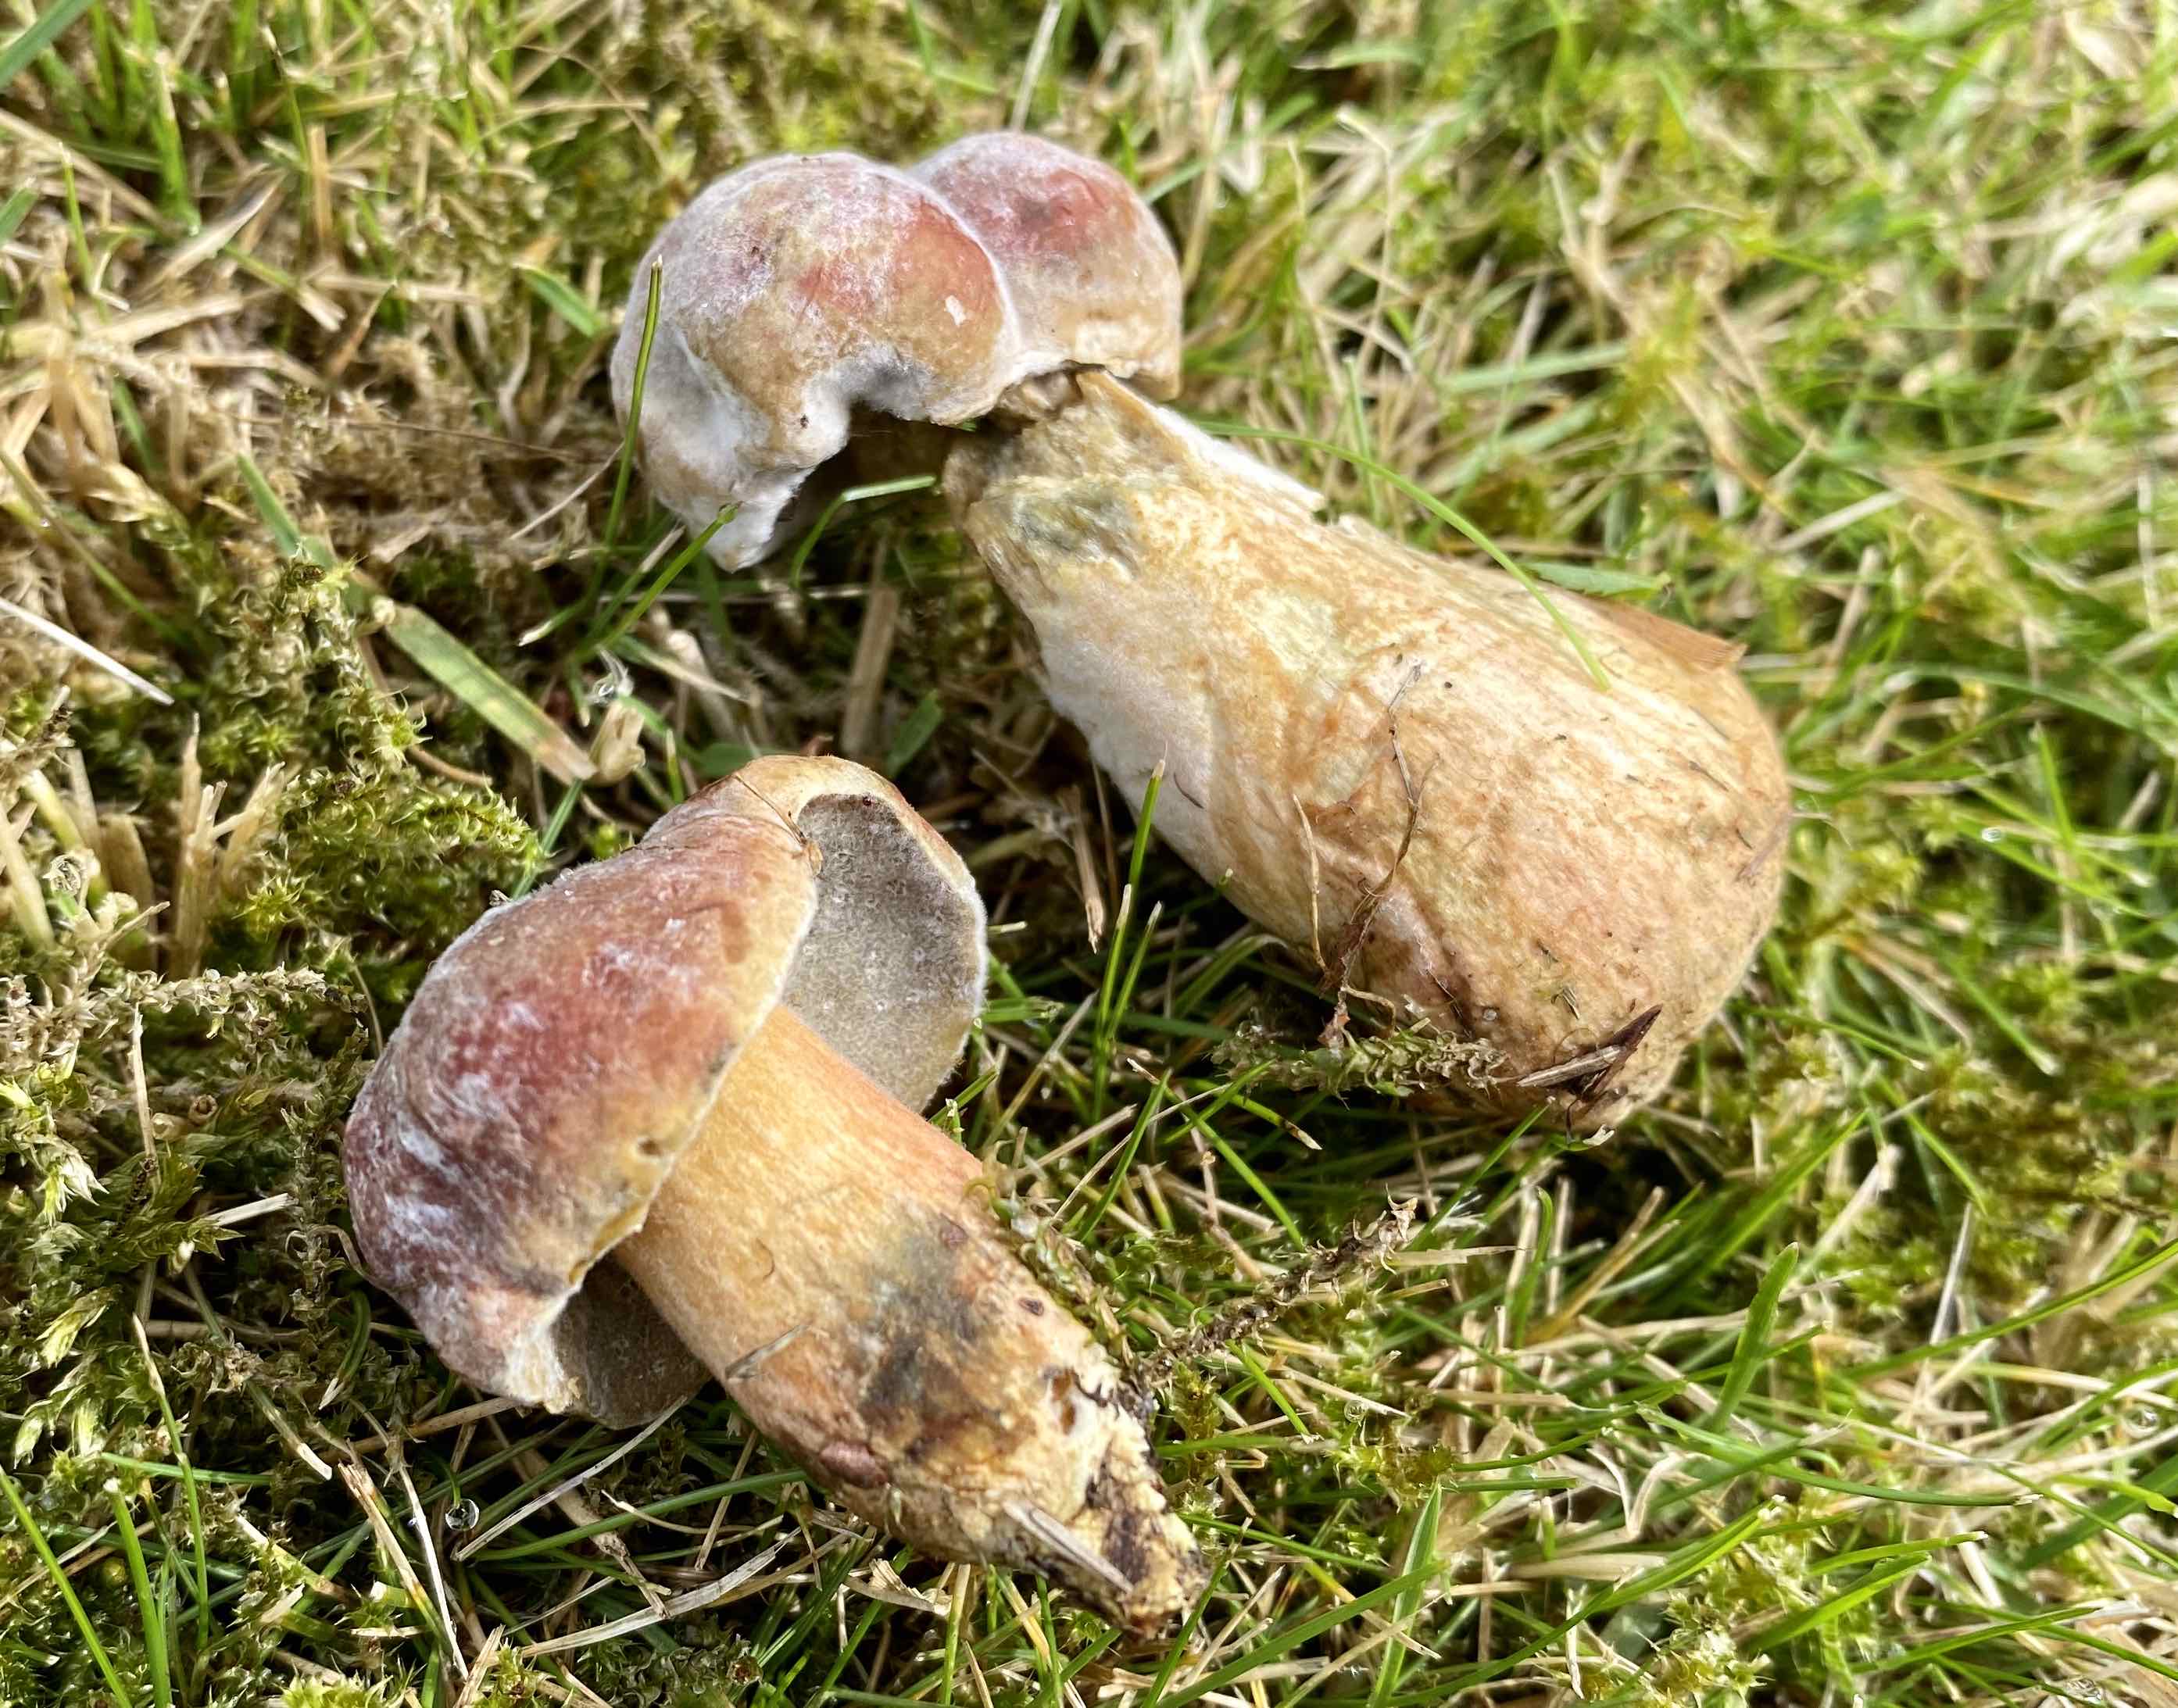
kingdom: Fungi
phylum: Basidiomycota
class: Agaricomycetes
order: Boletales
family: Boletaceae
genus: Hortiboletus
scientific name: Hortiboletus bubalinus
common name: aurora-rørhat
